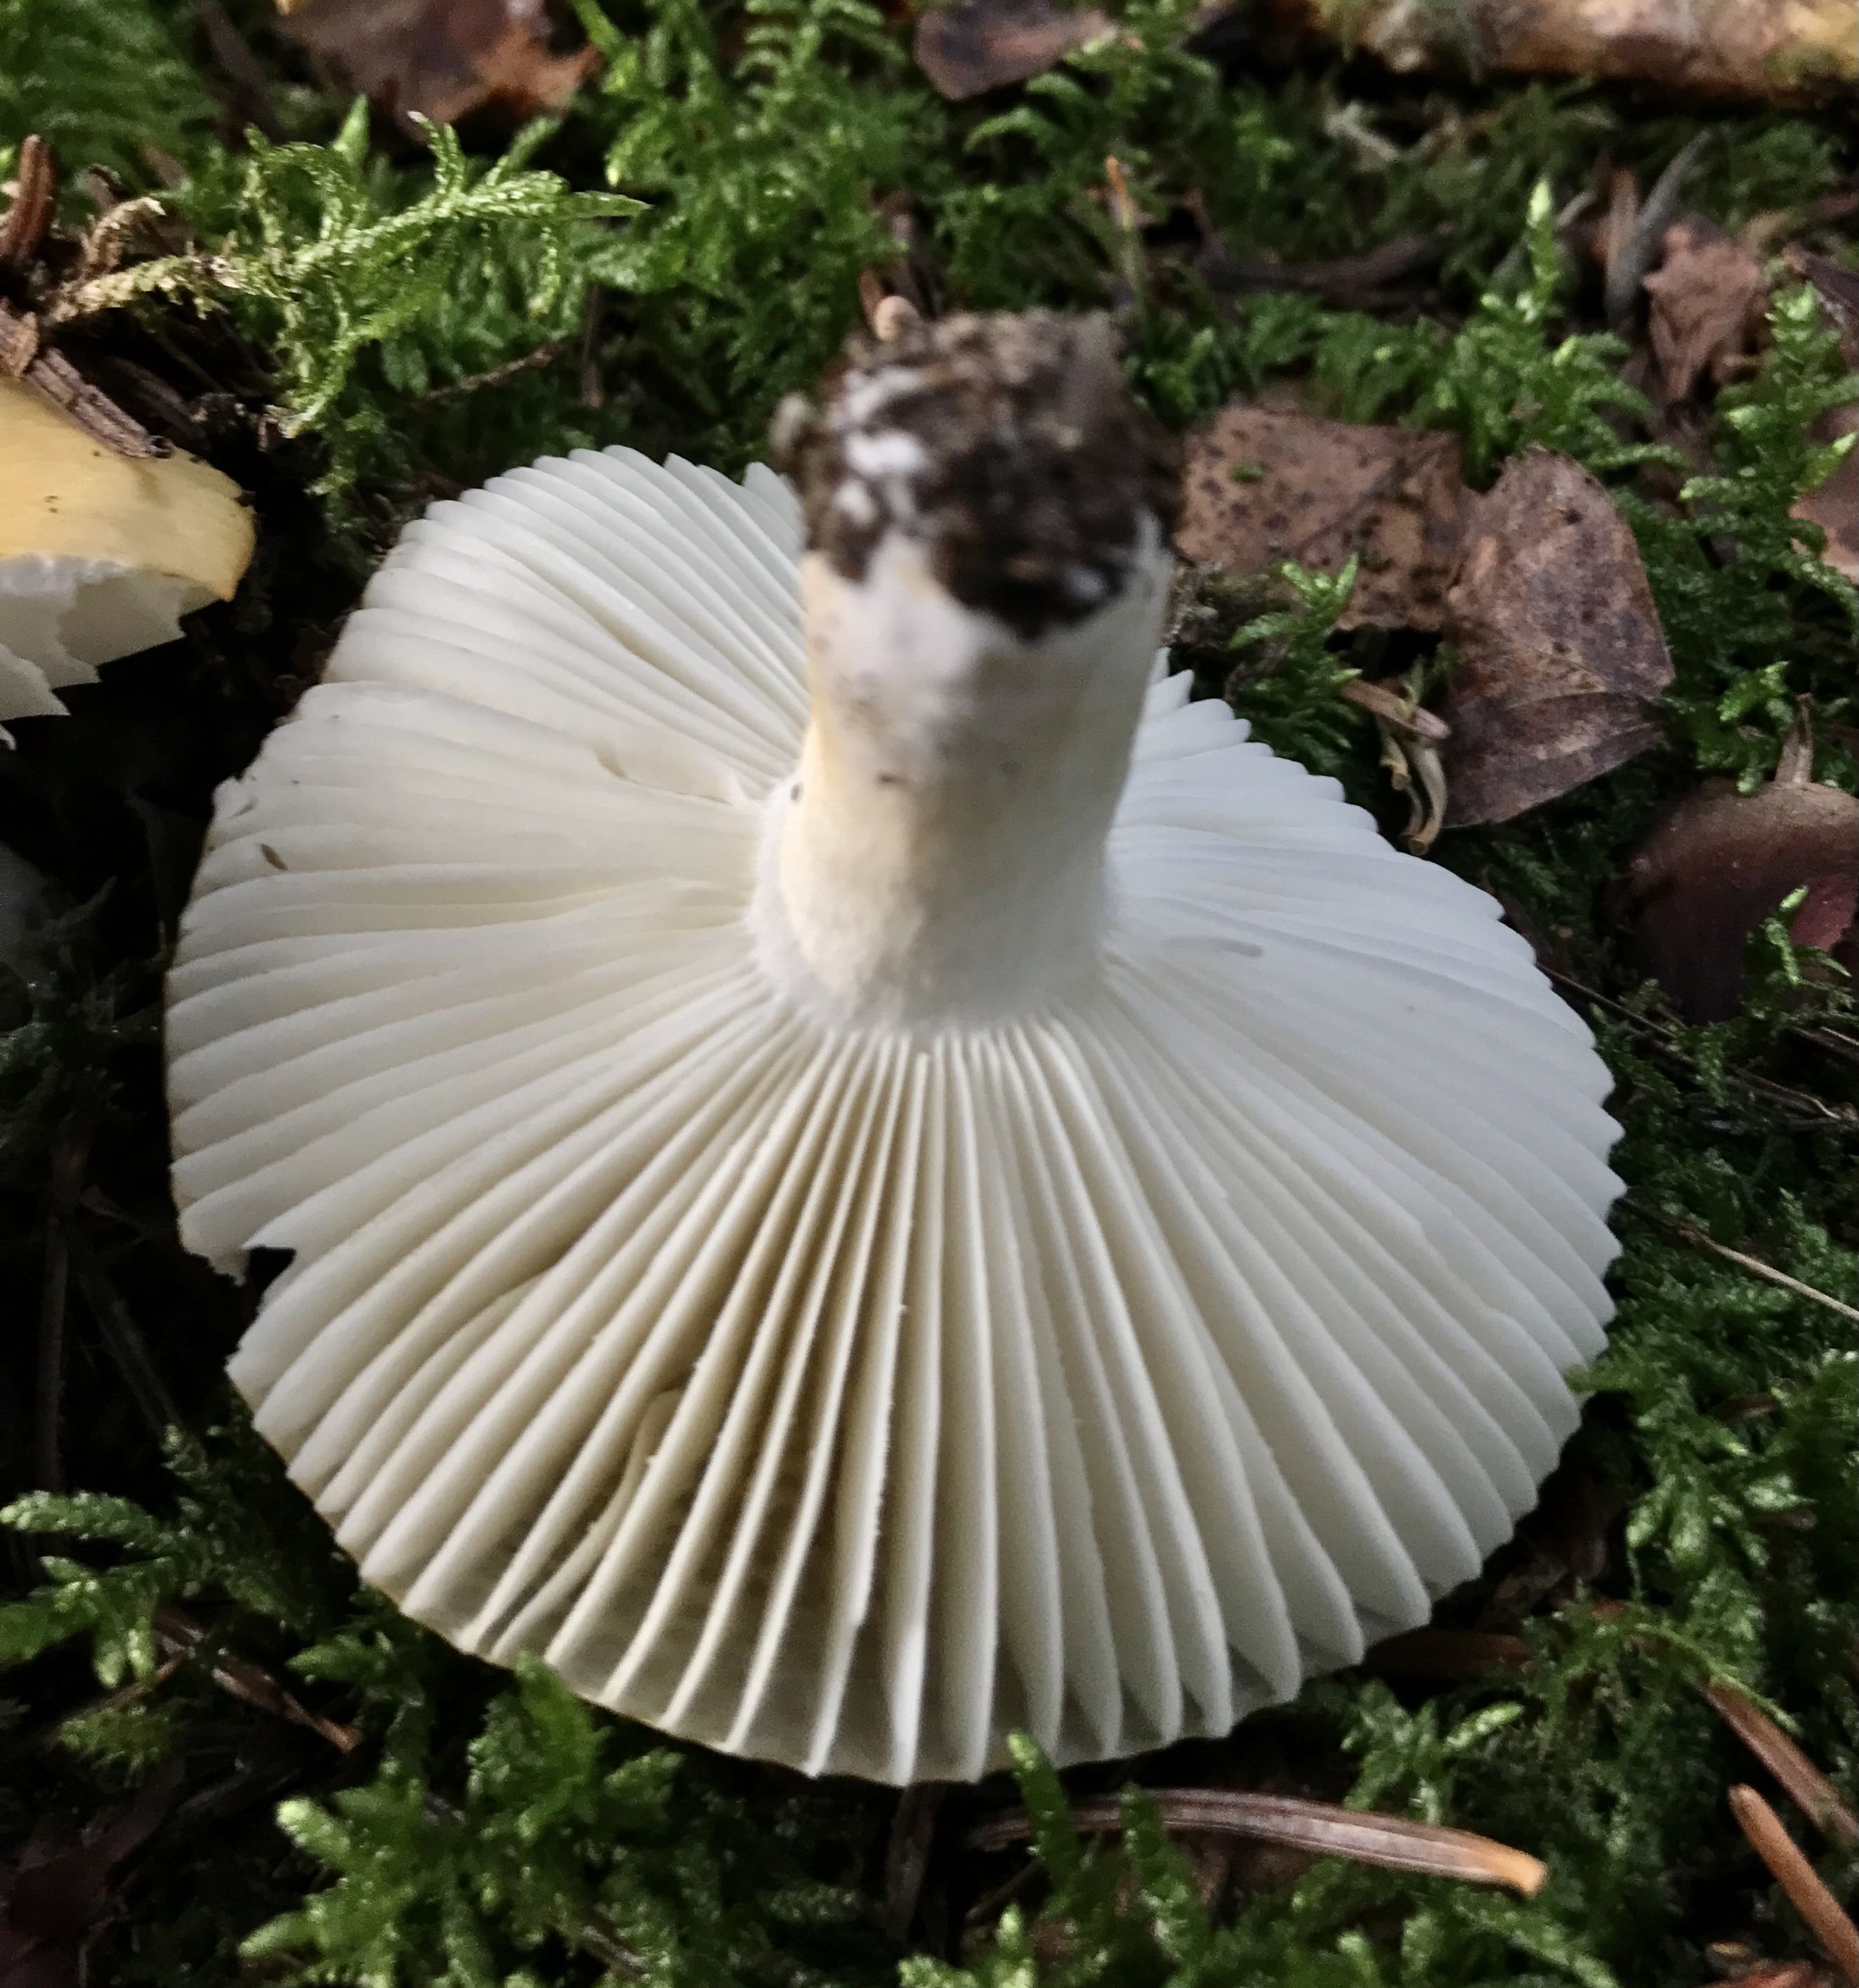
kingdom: Fungi
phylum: Basidiomycota
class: Agaricomycetes
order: Russulales
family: Russulaceae
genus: Russula
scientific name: Russula ochroleuca
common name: okkergul skørhat
